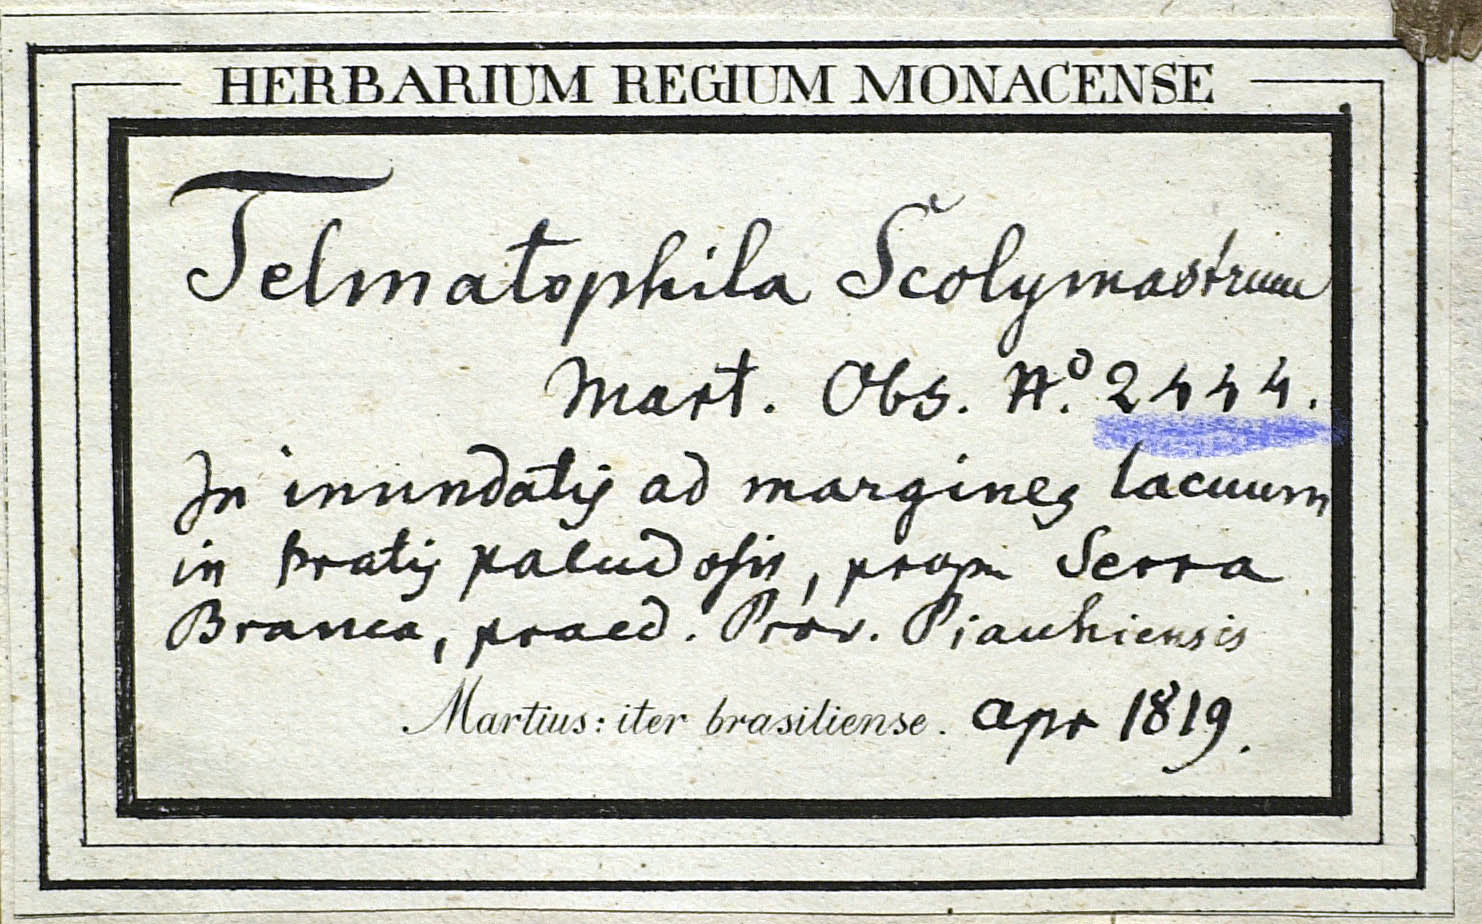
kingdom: Plantae
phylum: Tracheophyta
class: Magnoliopsida
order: Asterales
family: Asteraceae
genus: Telmatophila
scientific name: Telmatophila scolymastrum
